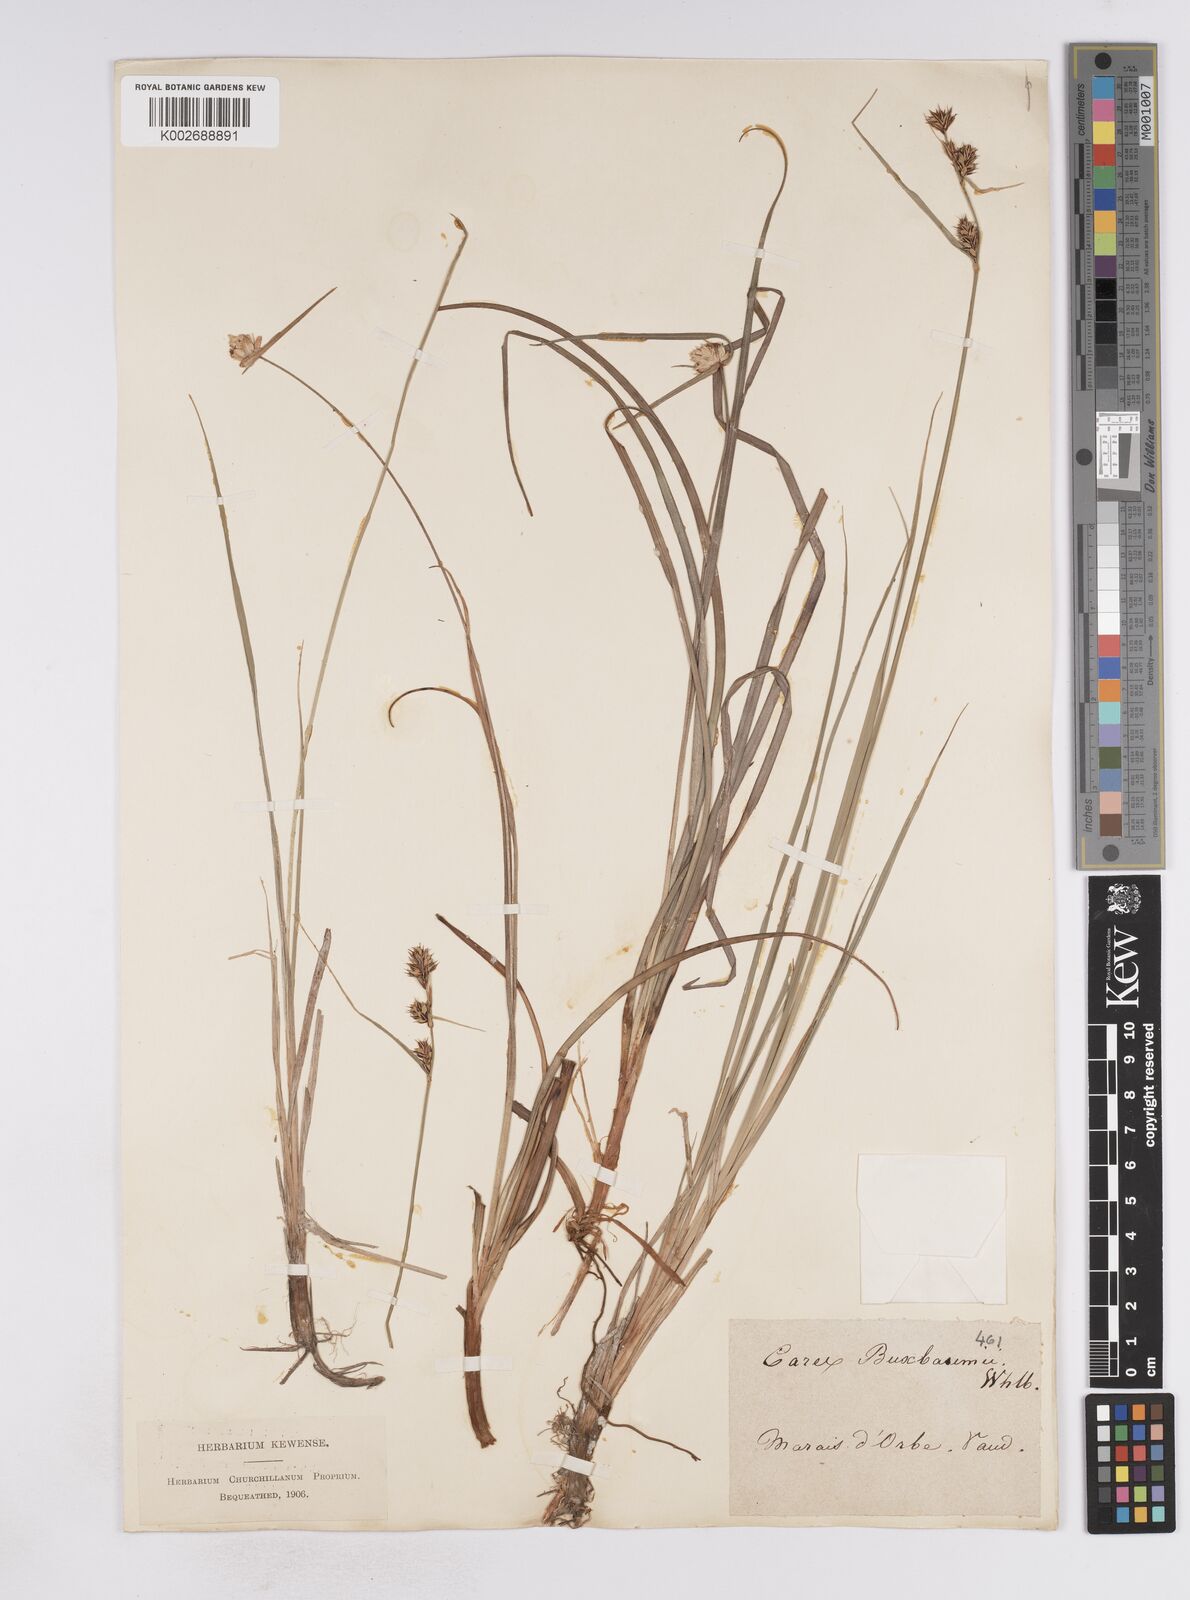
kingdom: Plantae
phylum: Tracheophyta
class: Liliopsida
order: Poales
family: Cyperaceae
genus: Carex
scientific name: Carex buxbaumii
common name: Club sedge
